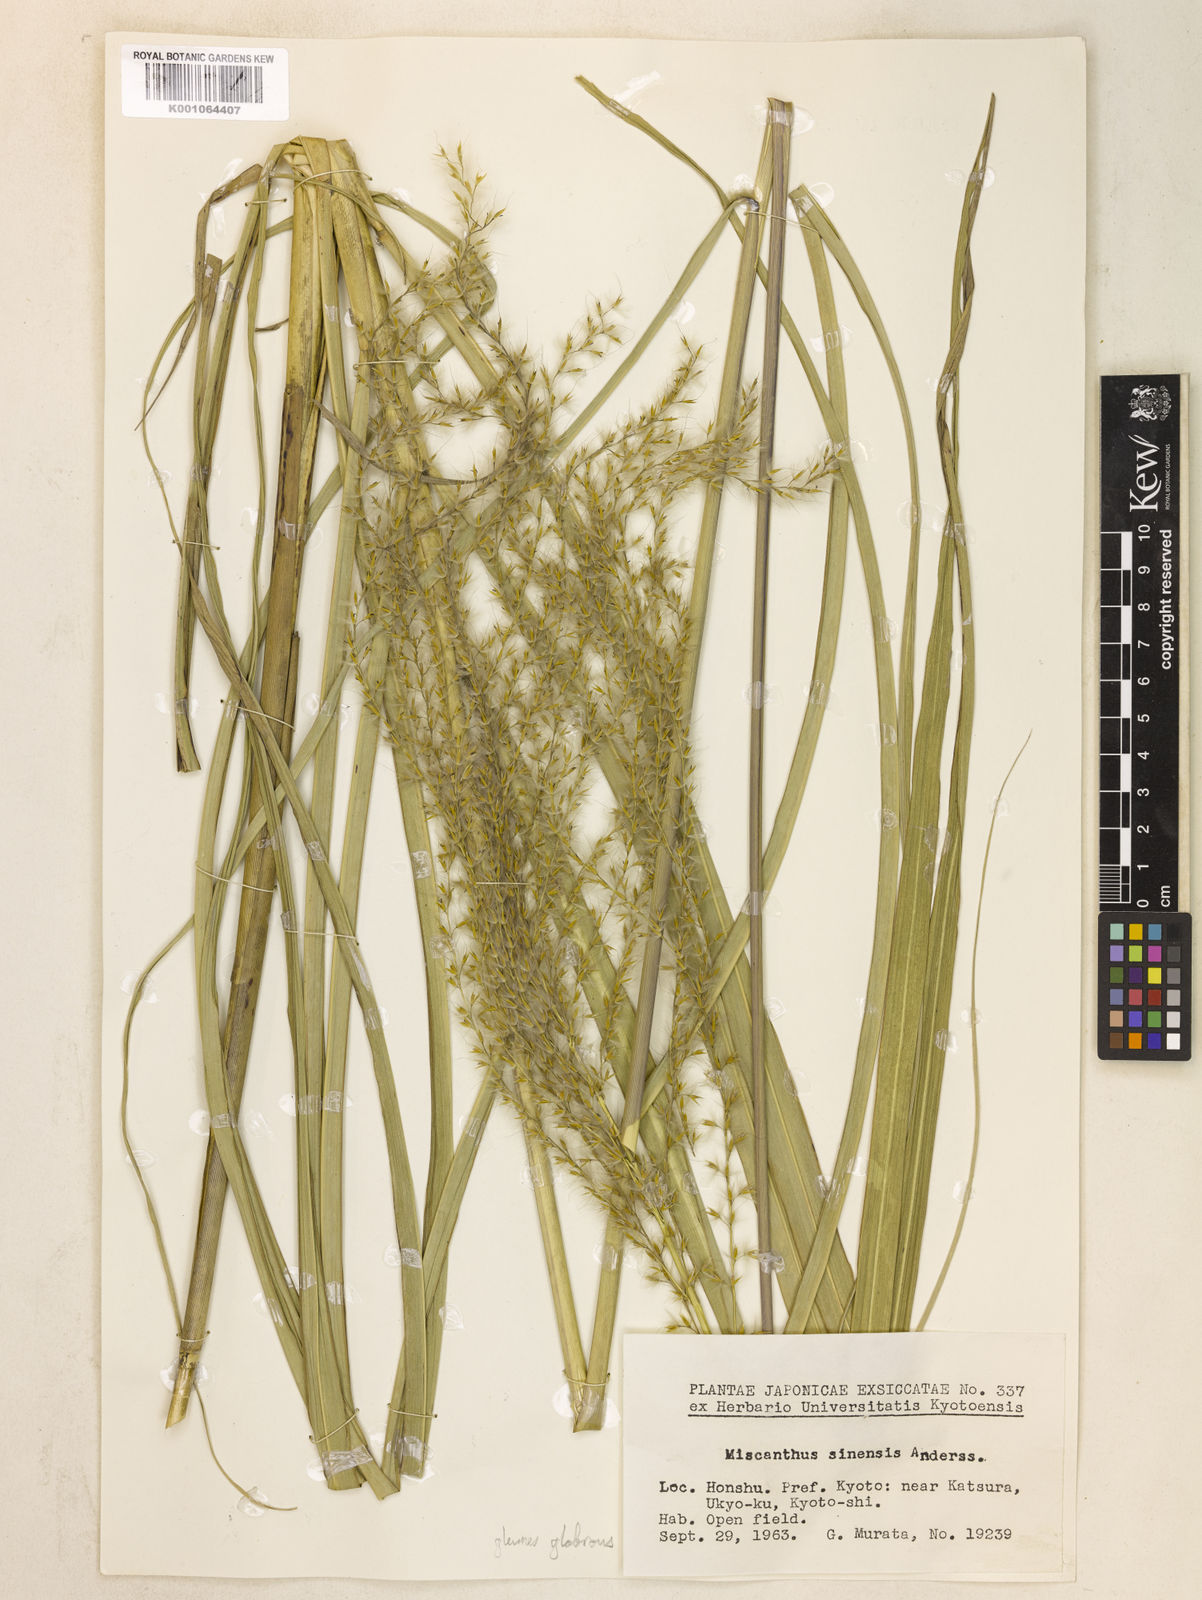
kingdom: Plantae
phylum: Tracheophyta
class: Liliopsida
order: Poales
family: Poaceae
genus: Miscanthus
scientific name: Miscanthus sinensis
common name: Chinese silvergrass
